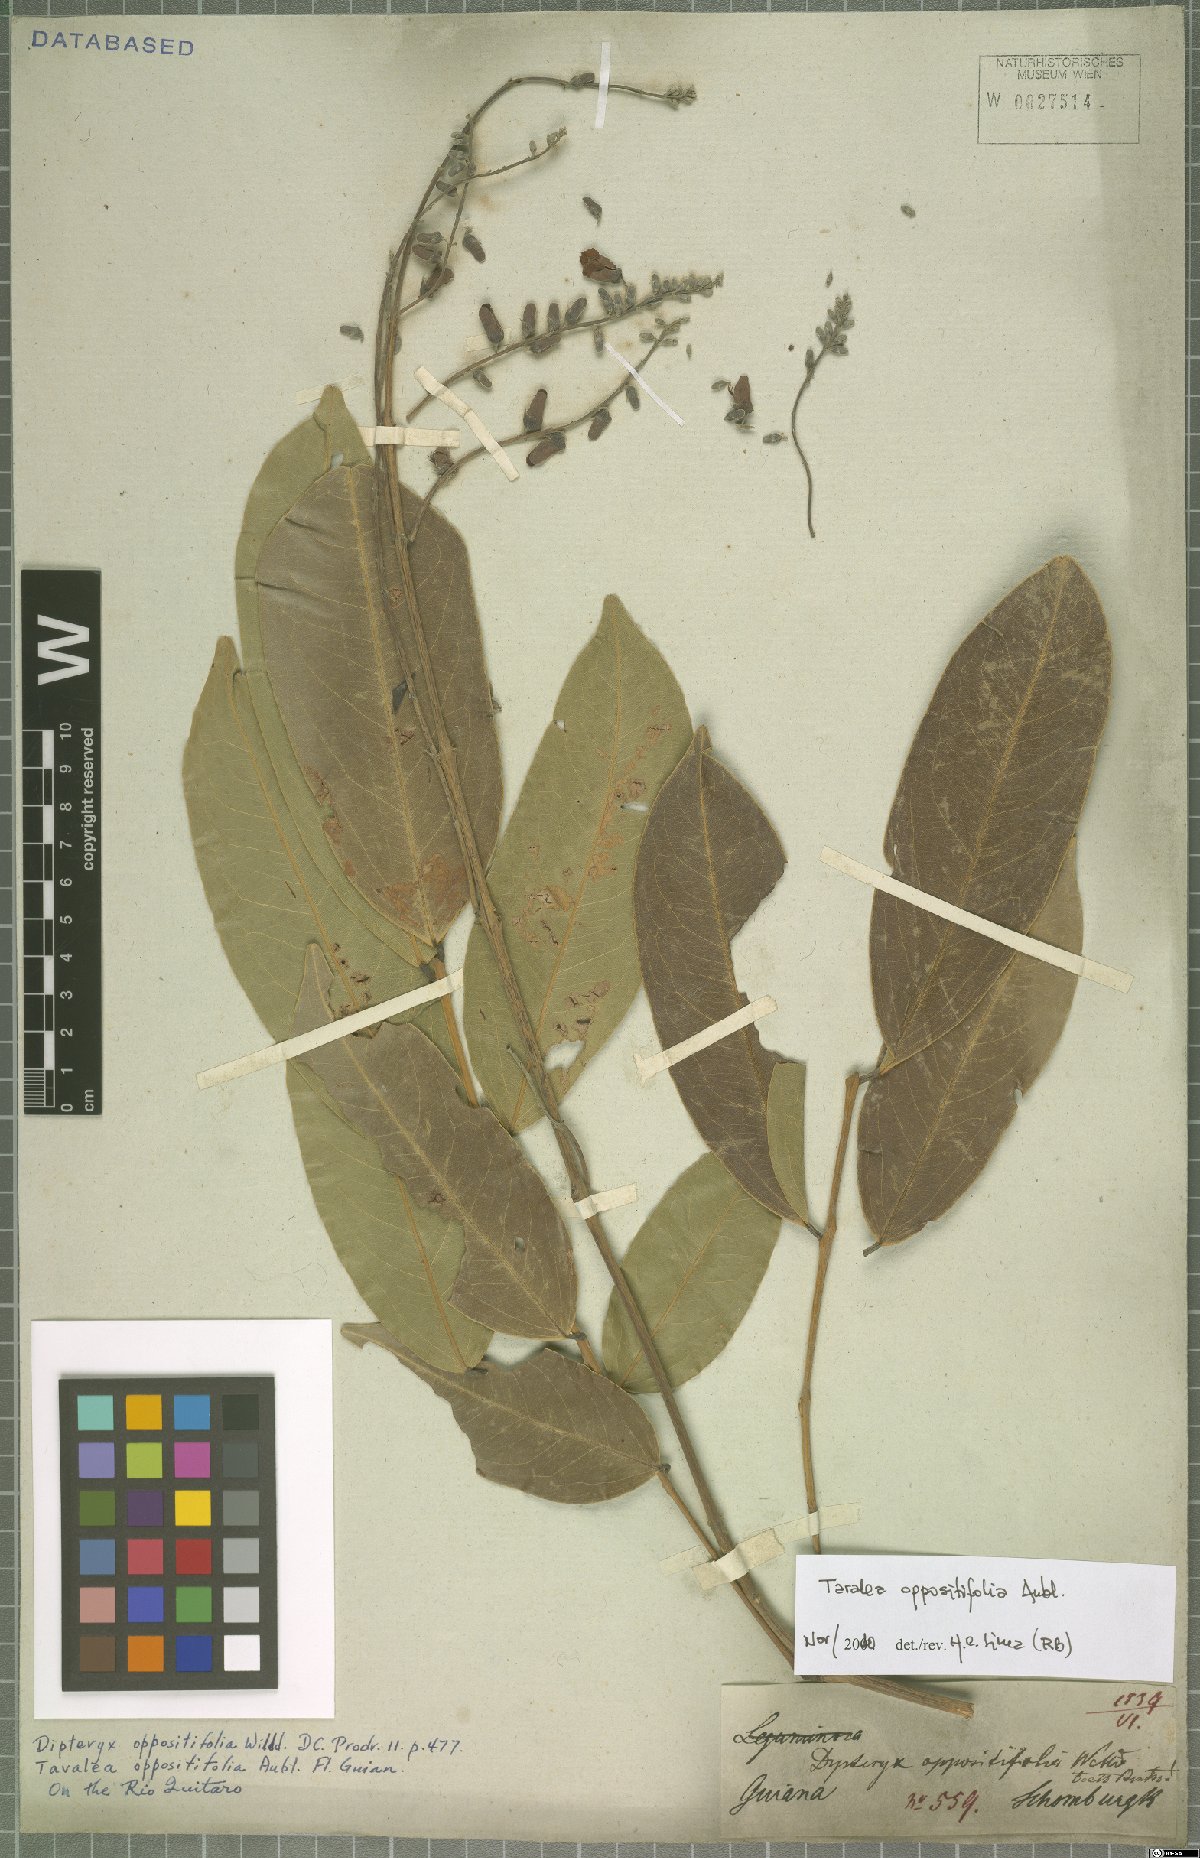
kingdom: Plantae
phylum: Tracheophyta
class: Magnoliopsida
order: Fabales
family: Fabaceae
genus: Taralea
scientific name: Taralea oppositifolia
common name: Tonka
